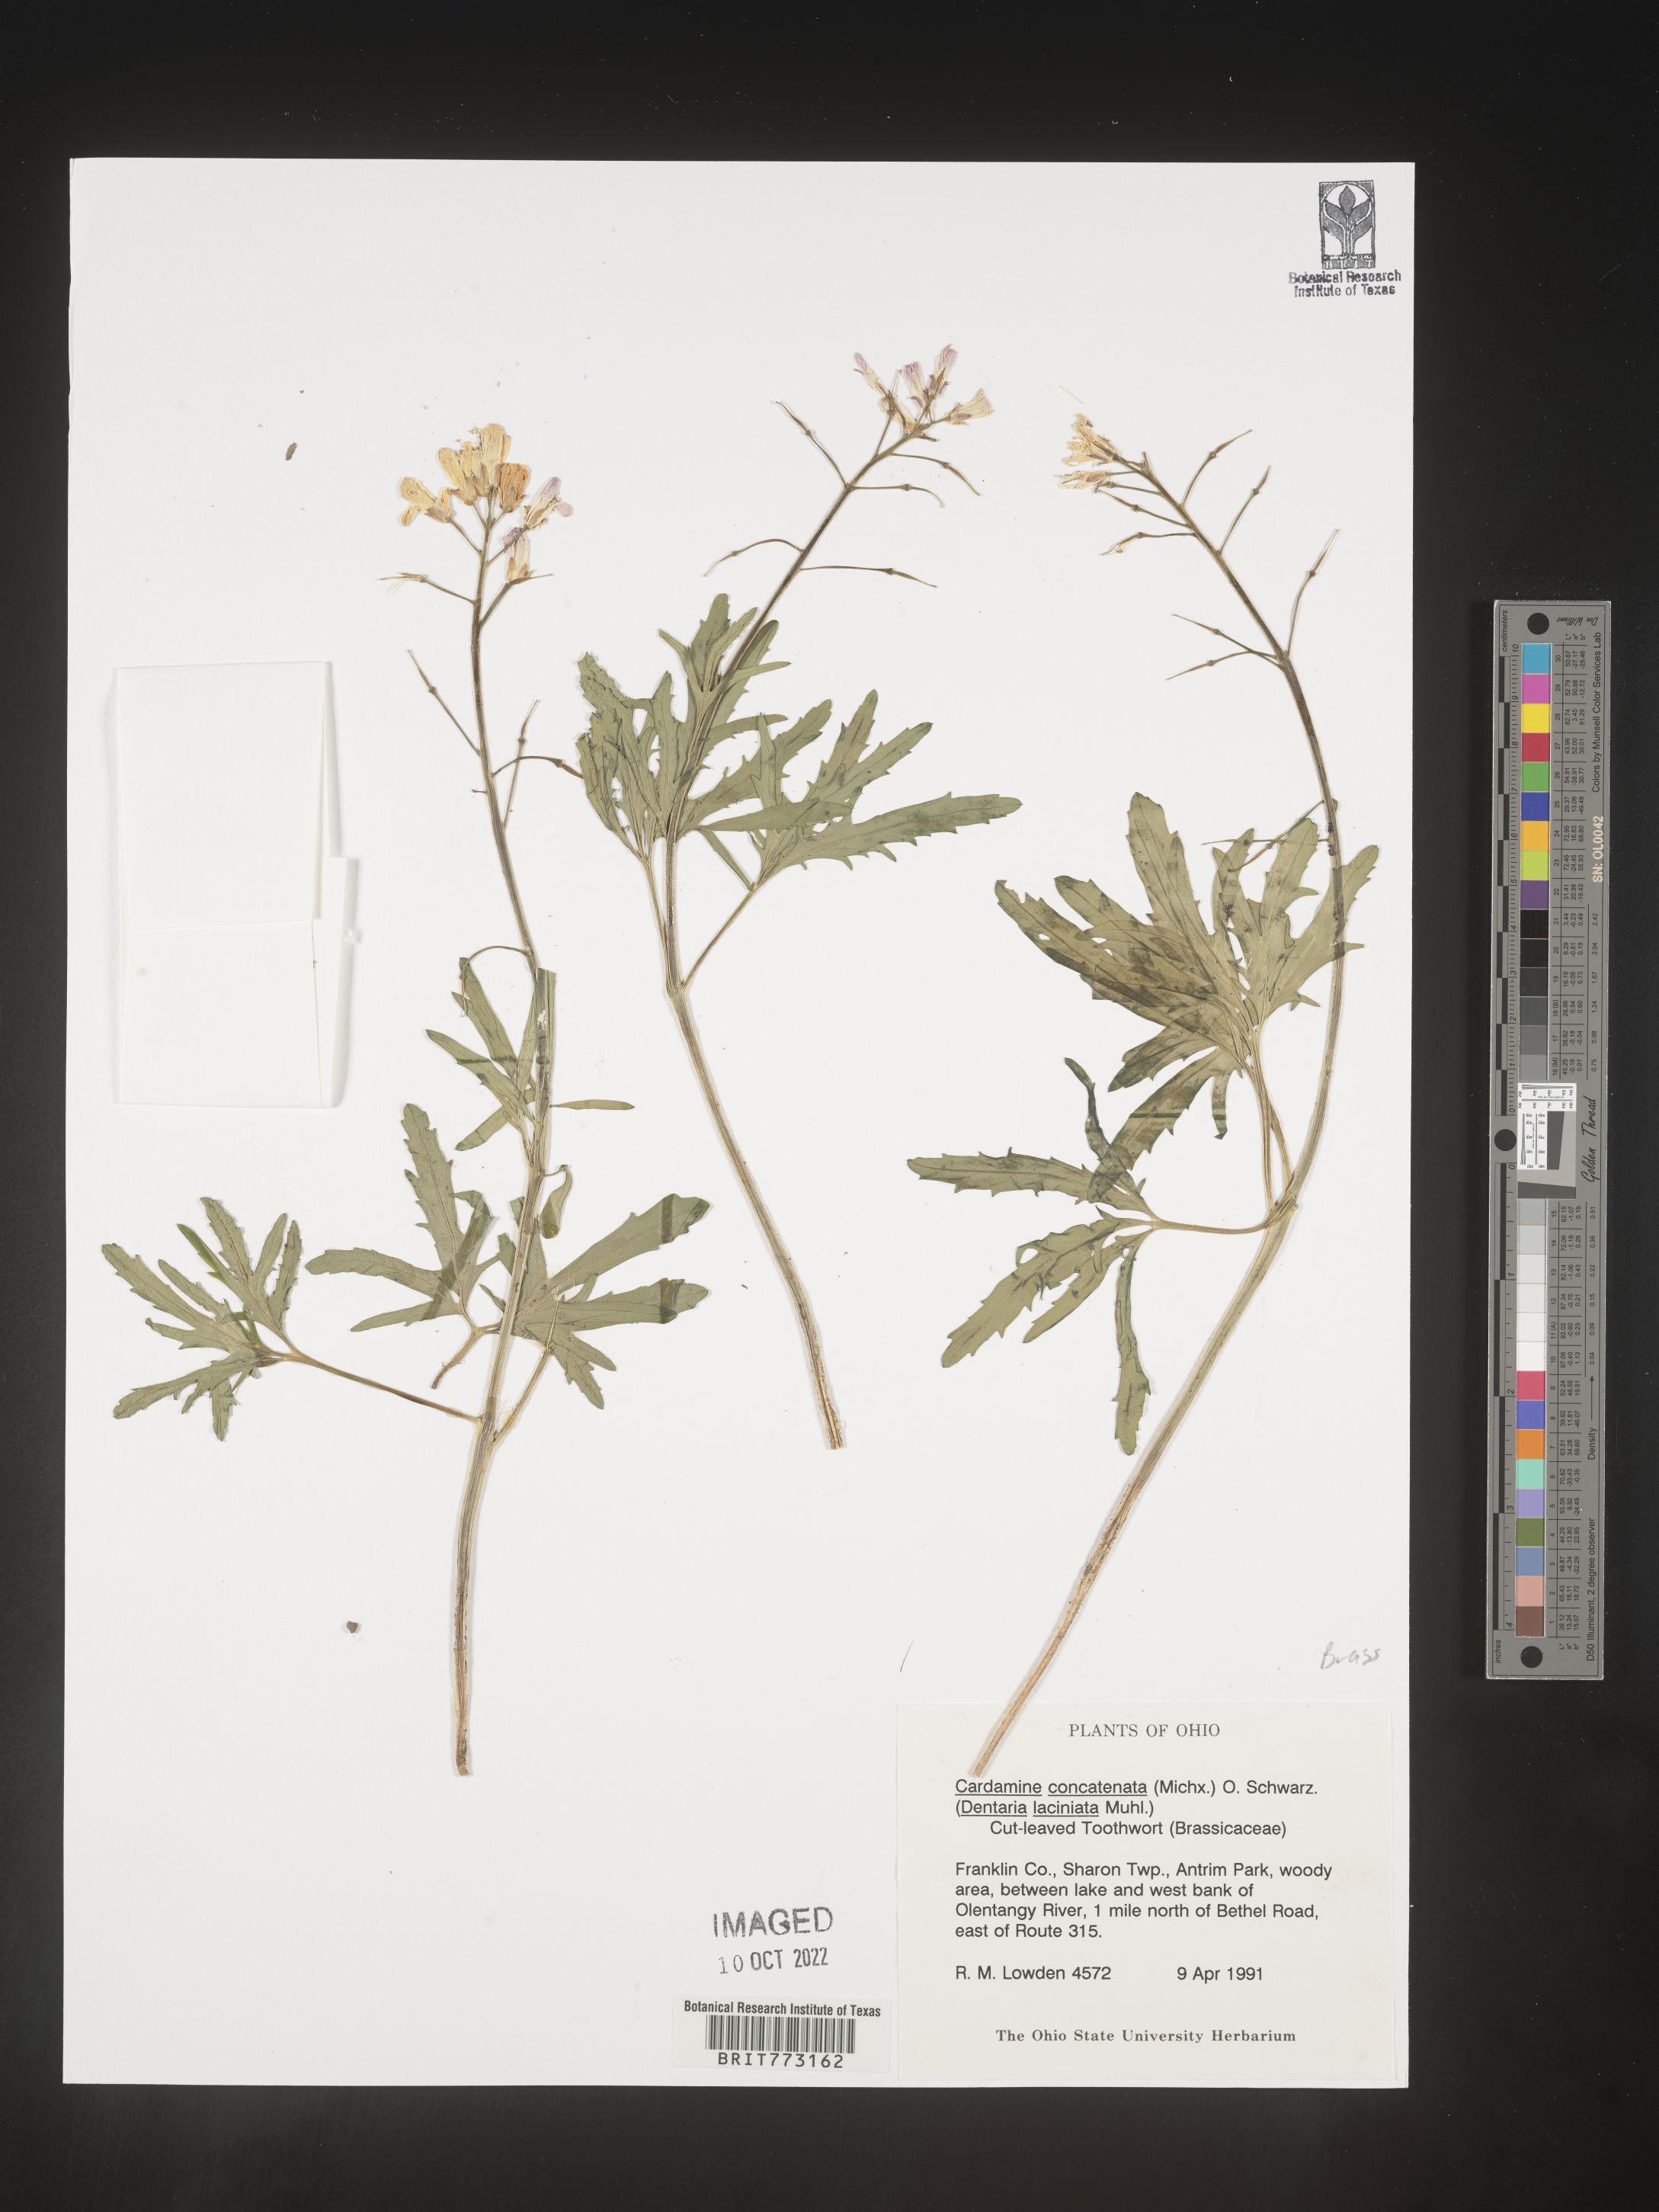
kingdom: Plantae
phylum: Tracheophyta
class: Magnoliopsida
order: Brassicales
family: Brassicaceae
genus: Cardamine
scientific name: Cardamine
